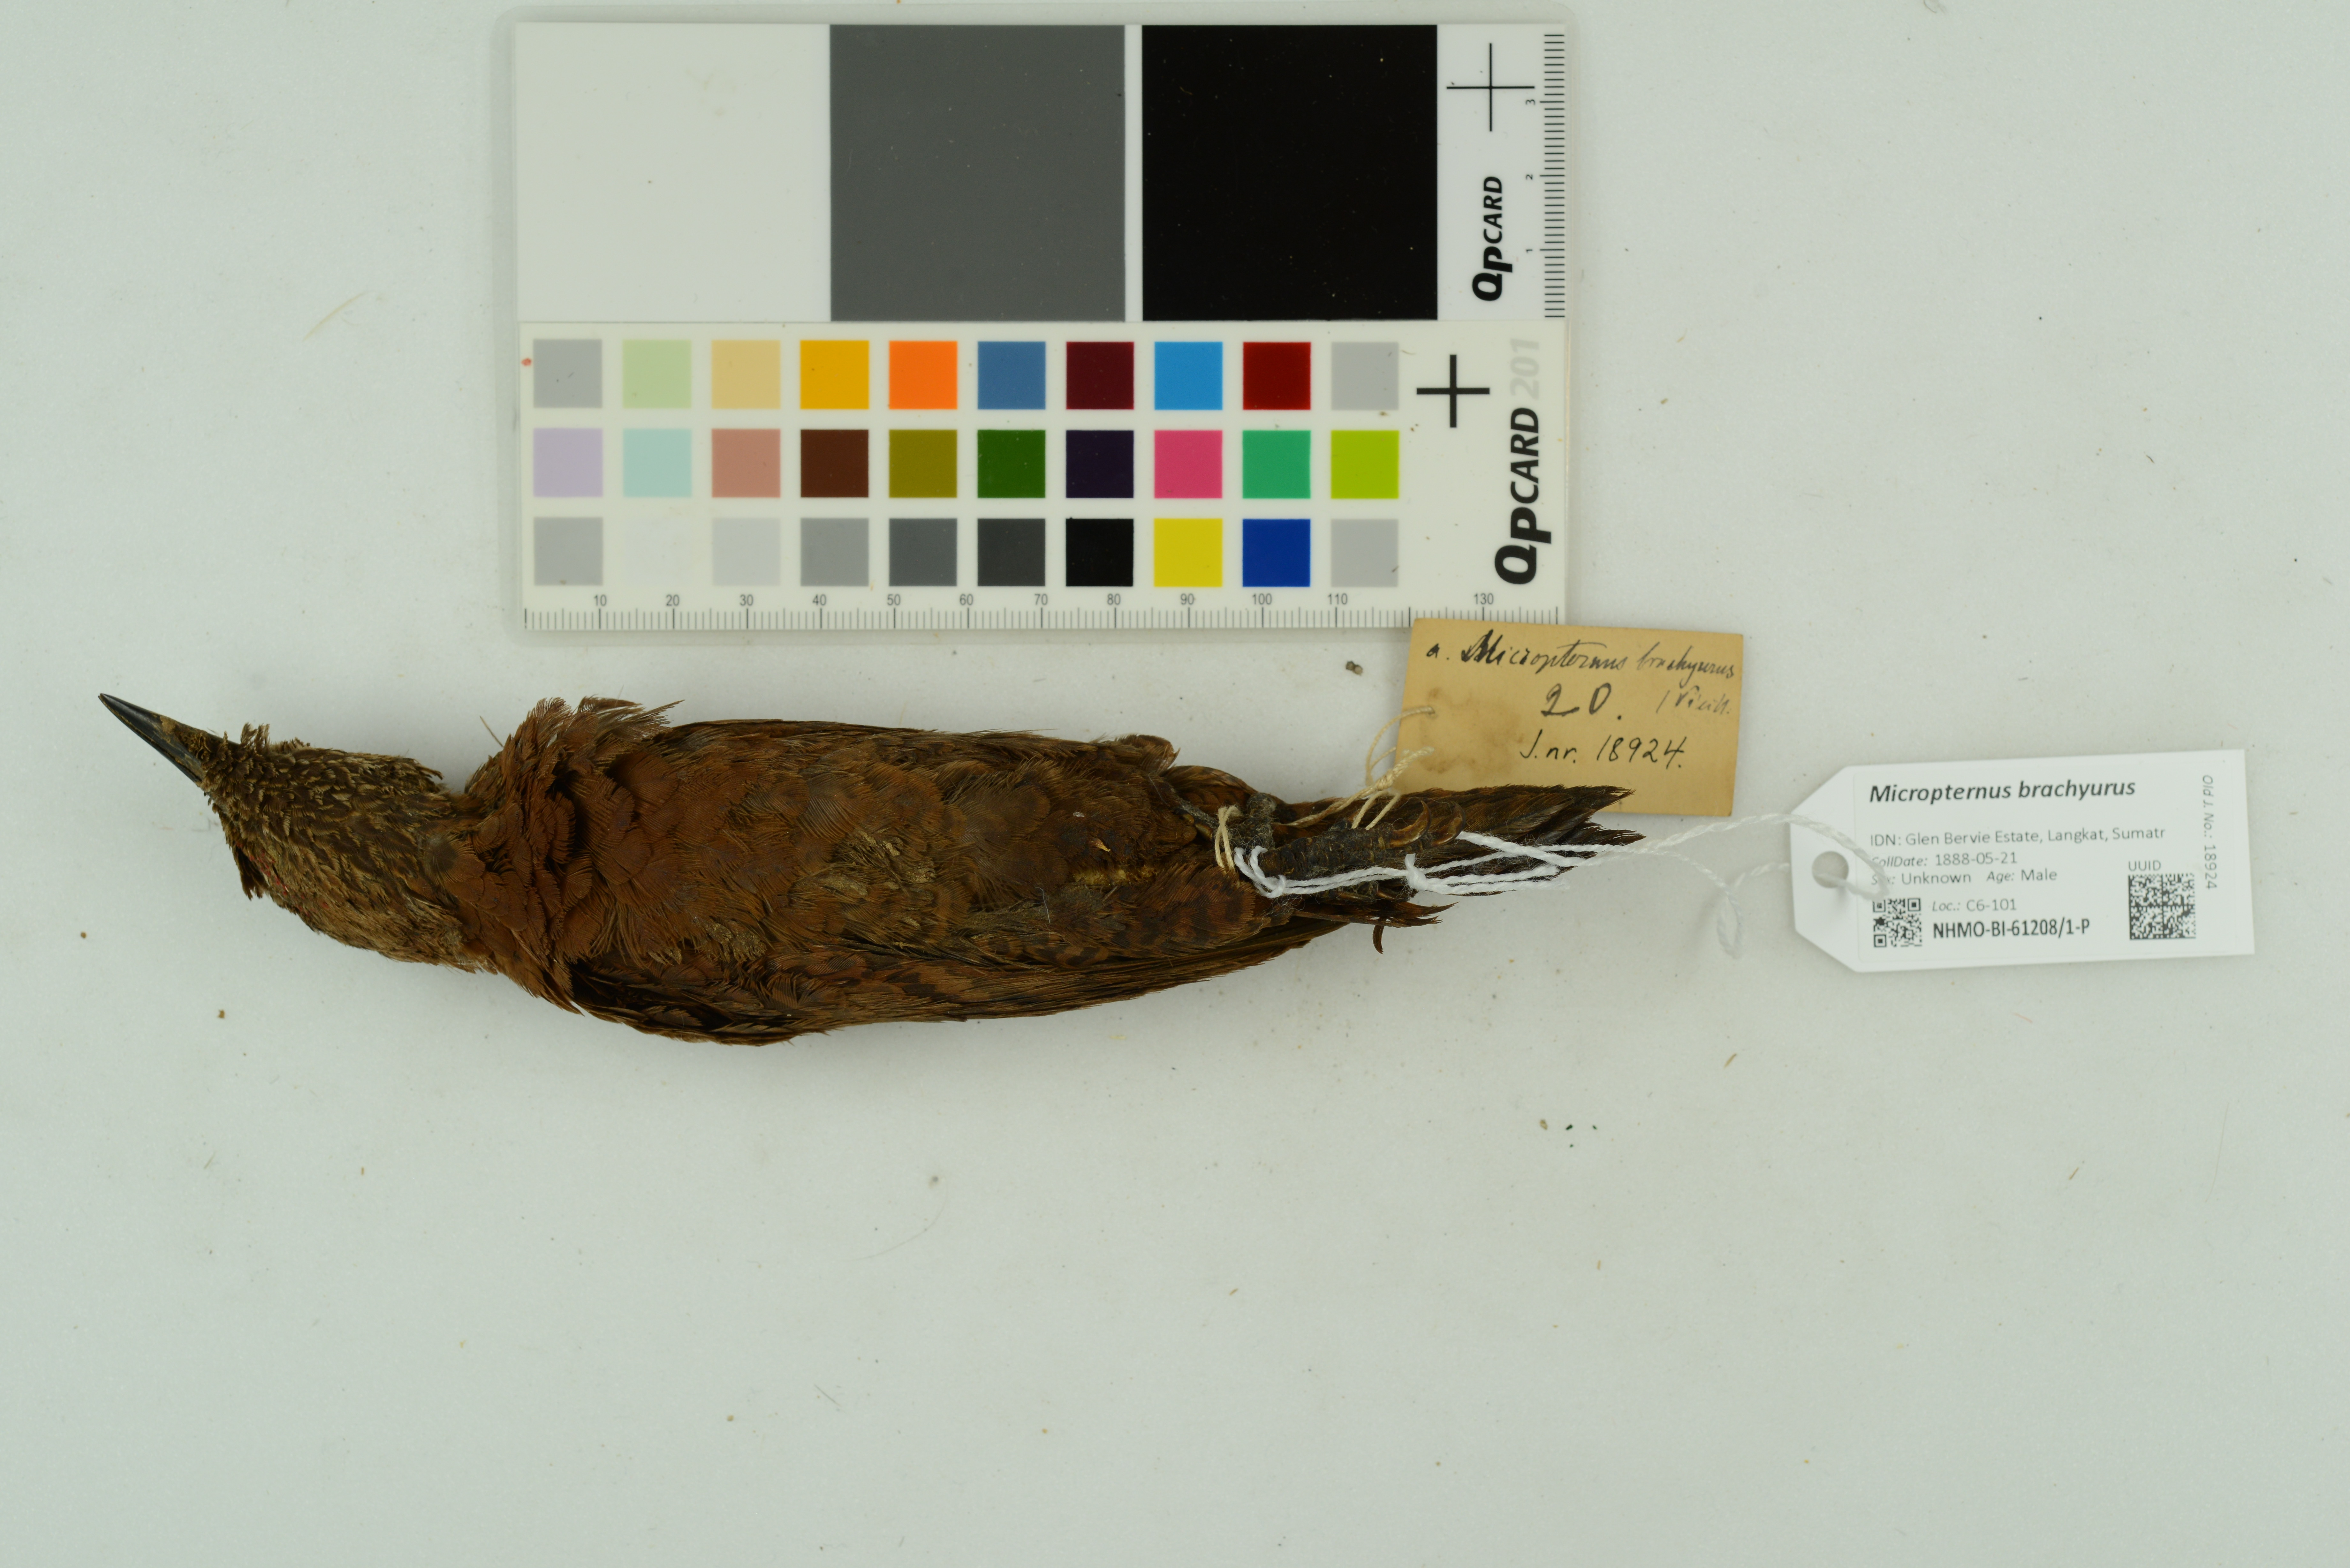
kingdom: Animalia
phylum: Chordata
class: Aves
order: Piciformes
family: Picidae
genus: Micropternus
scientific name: Micropternus brachyurus
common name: Rufous woodpecker
